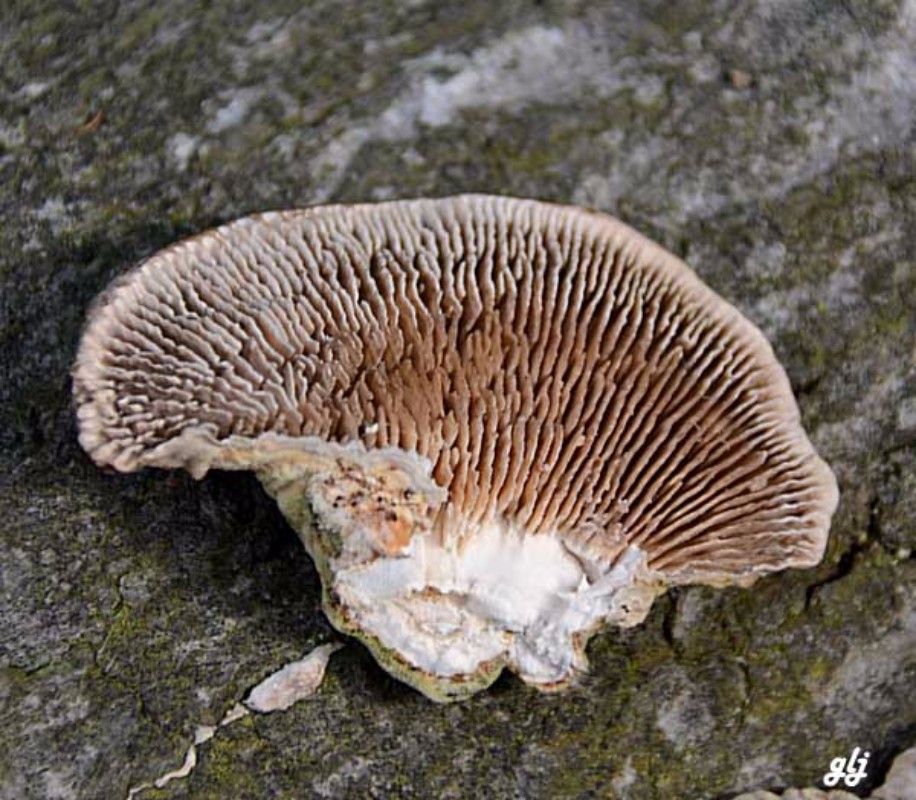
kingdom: Fungi
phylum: Basidiomycota
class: Agaricomycetes
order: Polyporales
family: Polyporaceae
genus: Lenzites
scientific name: Lenzites betulinus
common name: birke-læderporesvamp
